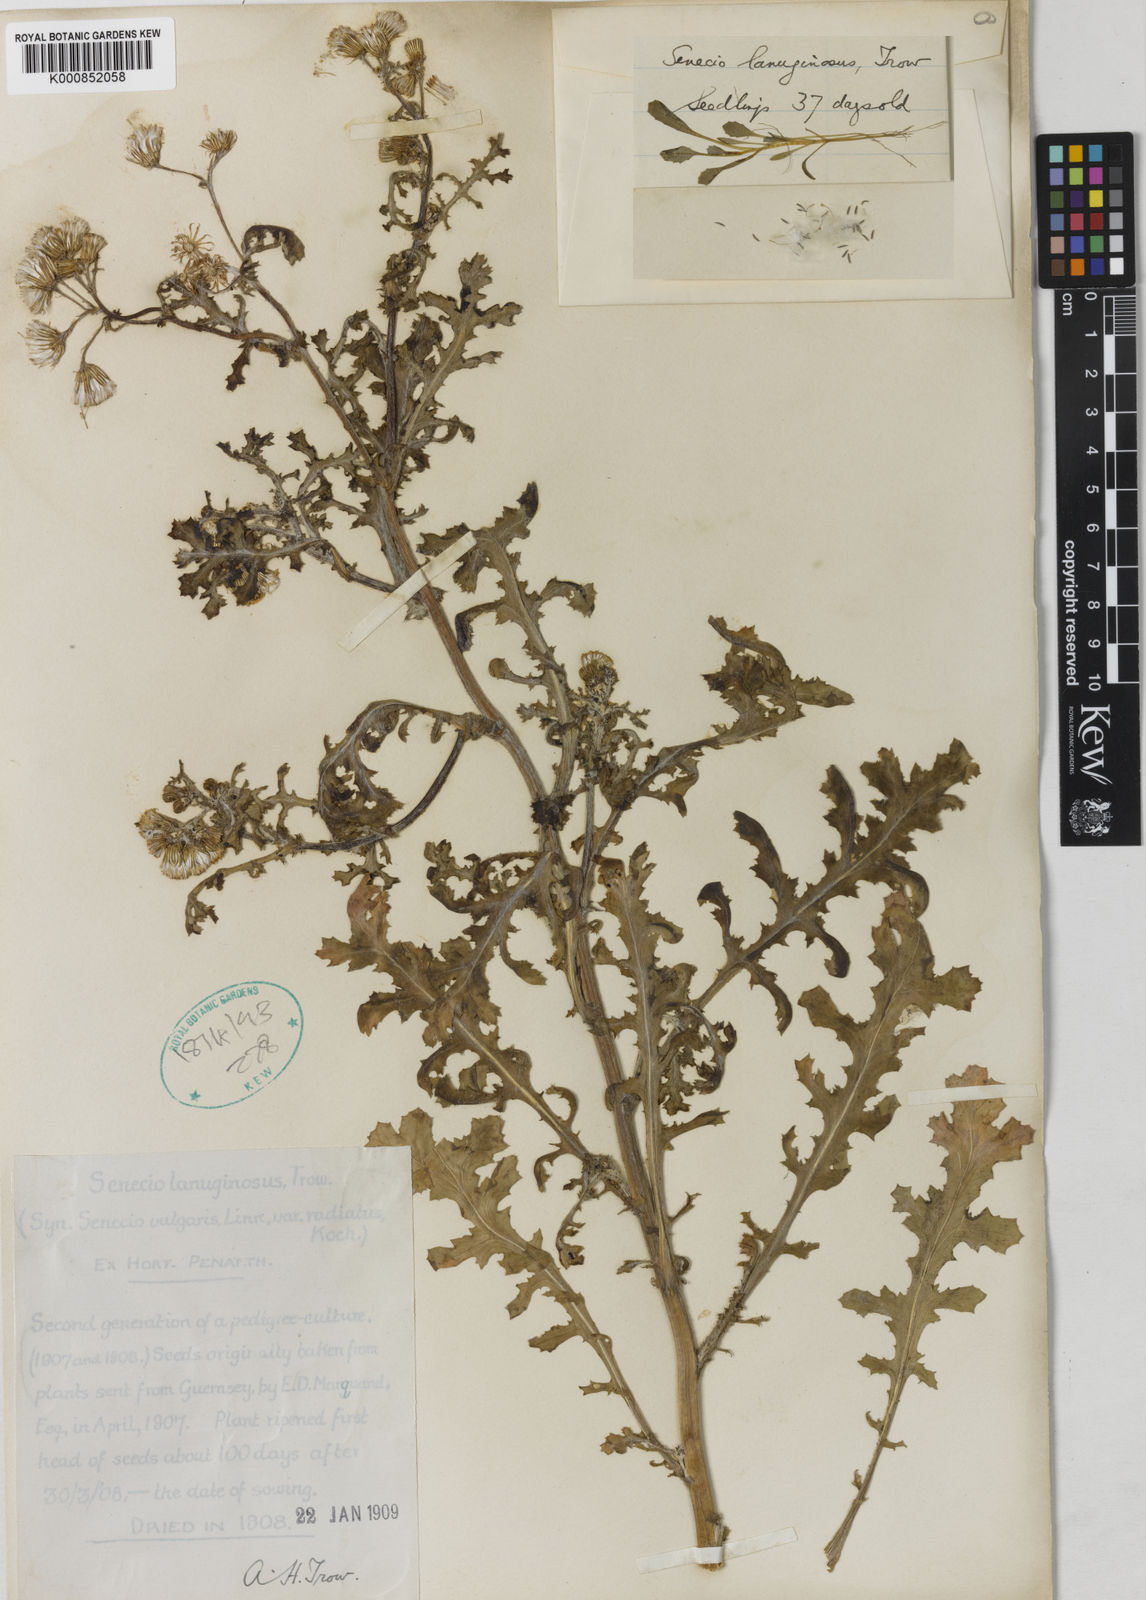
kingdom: Plantae
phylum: Tracheophyta
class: Magnoliopsida
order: Asterales
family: Asteraceae
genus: Senecio
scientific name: Senecio vulgaris
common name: Old-man-in-the-spring
